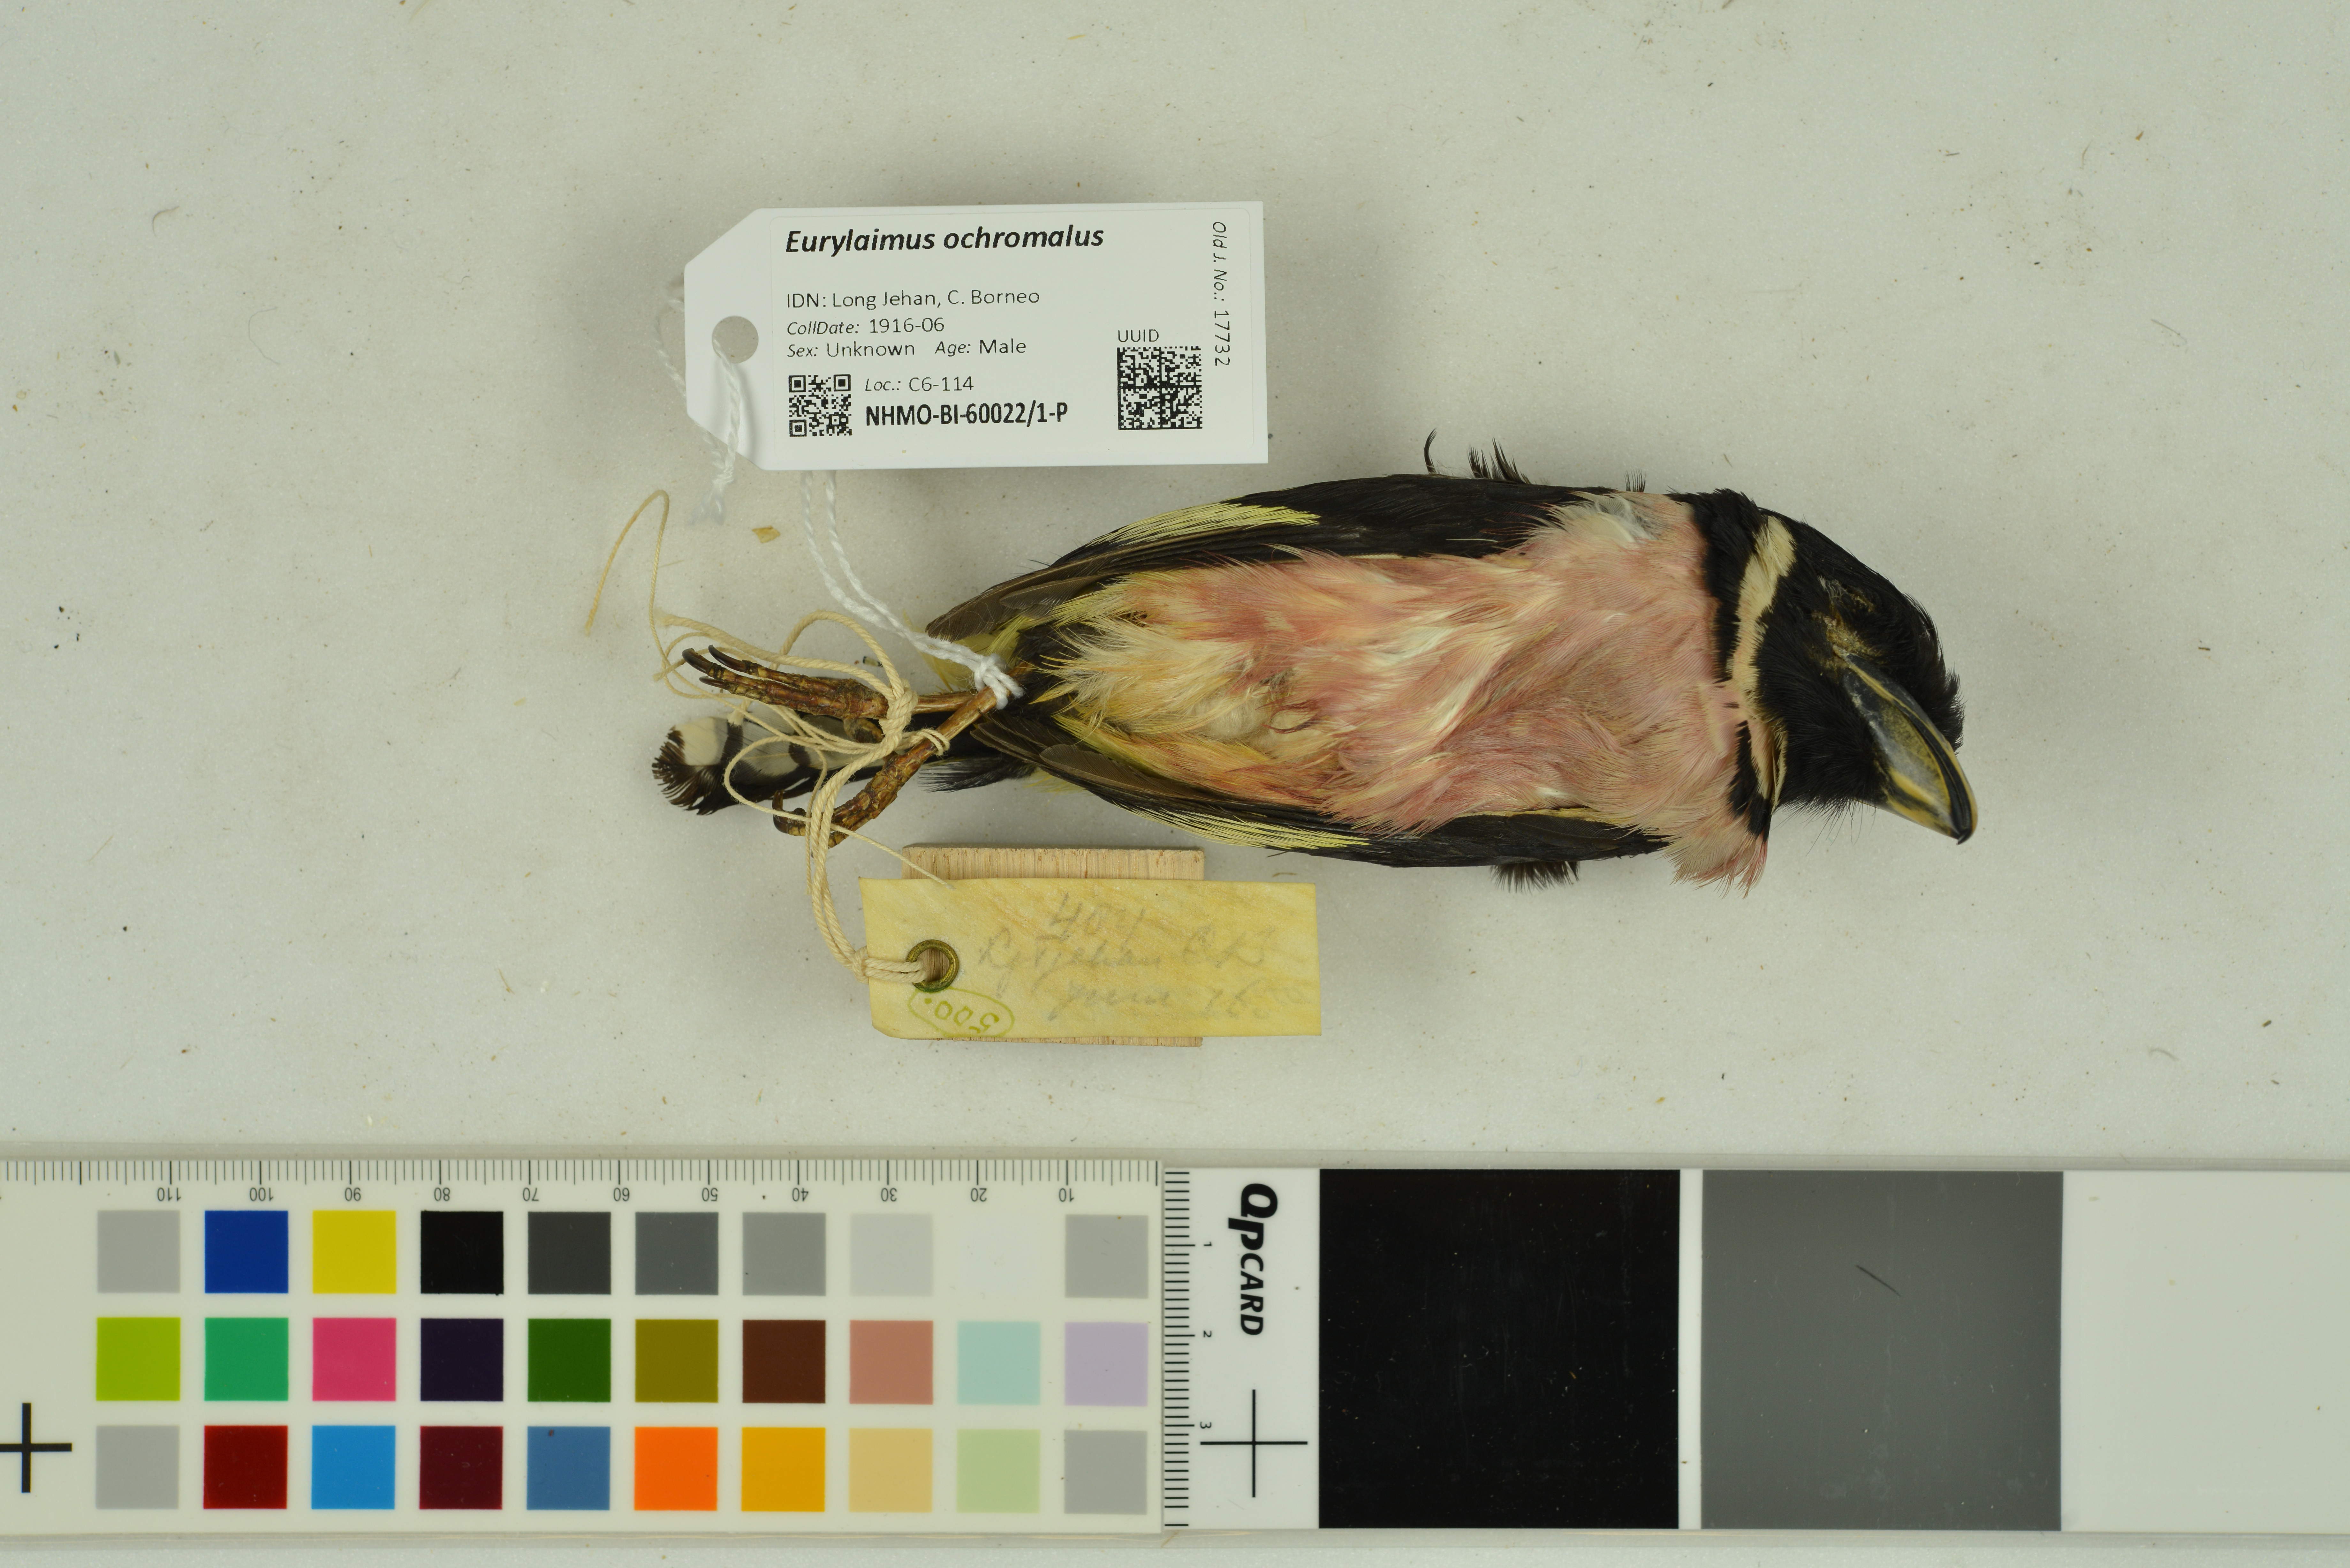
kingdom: Animalia
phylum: Chordata
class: Aves
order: Passeriformes
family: Eurylaimidae
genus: Eurylaimus
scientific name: Eurylaimus ochromalus
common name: Black-and-yellow broadbill
